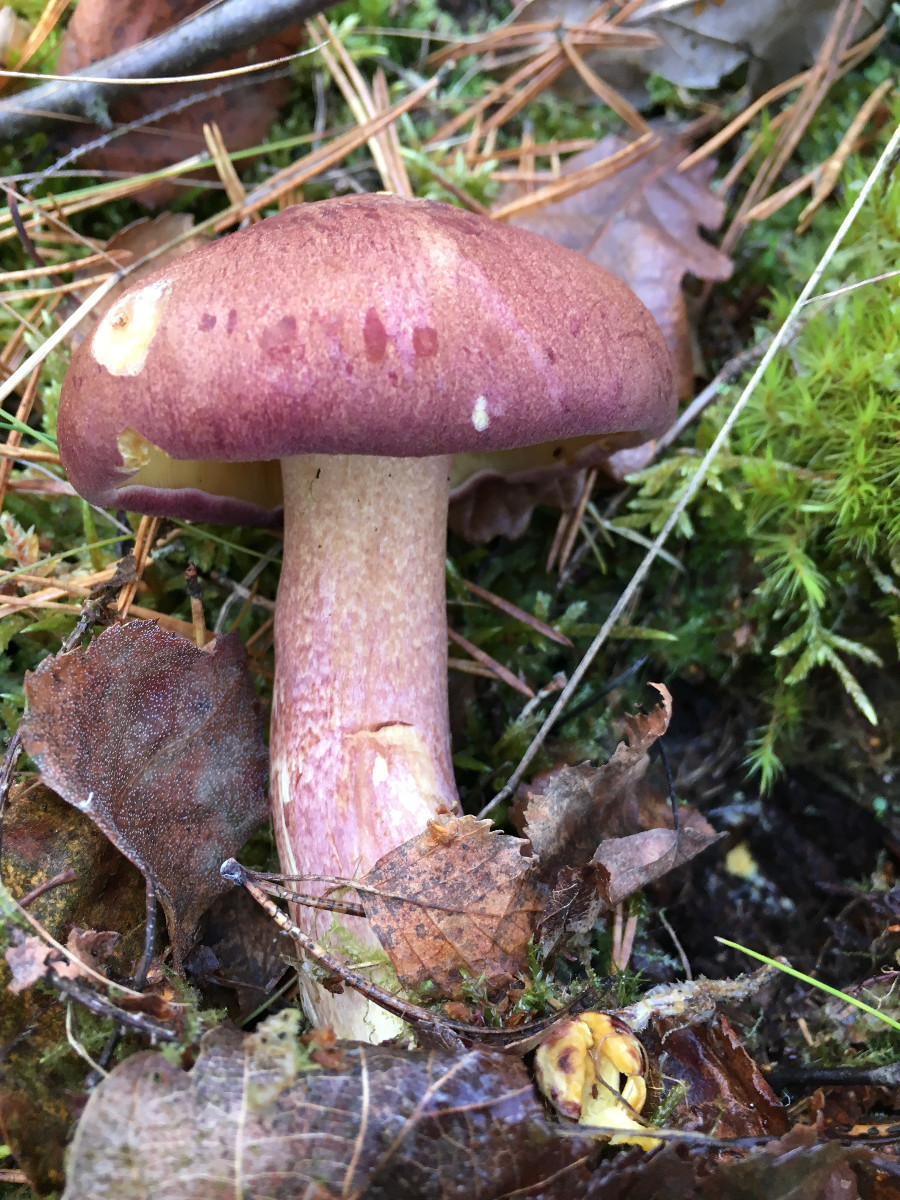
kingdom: Fungi
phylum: Basidiomycota
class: Agaricomycetes
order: Agaricales
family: Tricholomataceae
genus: Tricholomopsis
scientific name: Tricholomopsis rutilans
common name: purpur-væbnerhat
